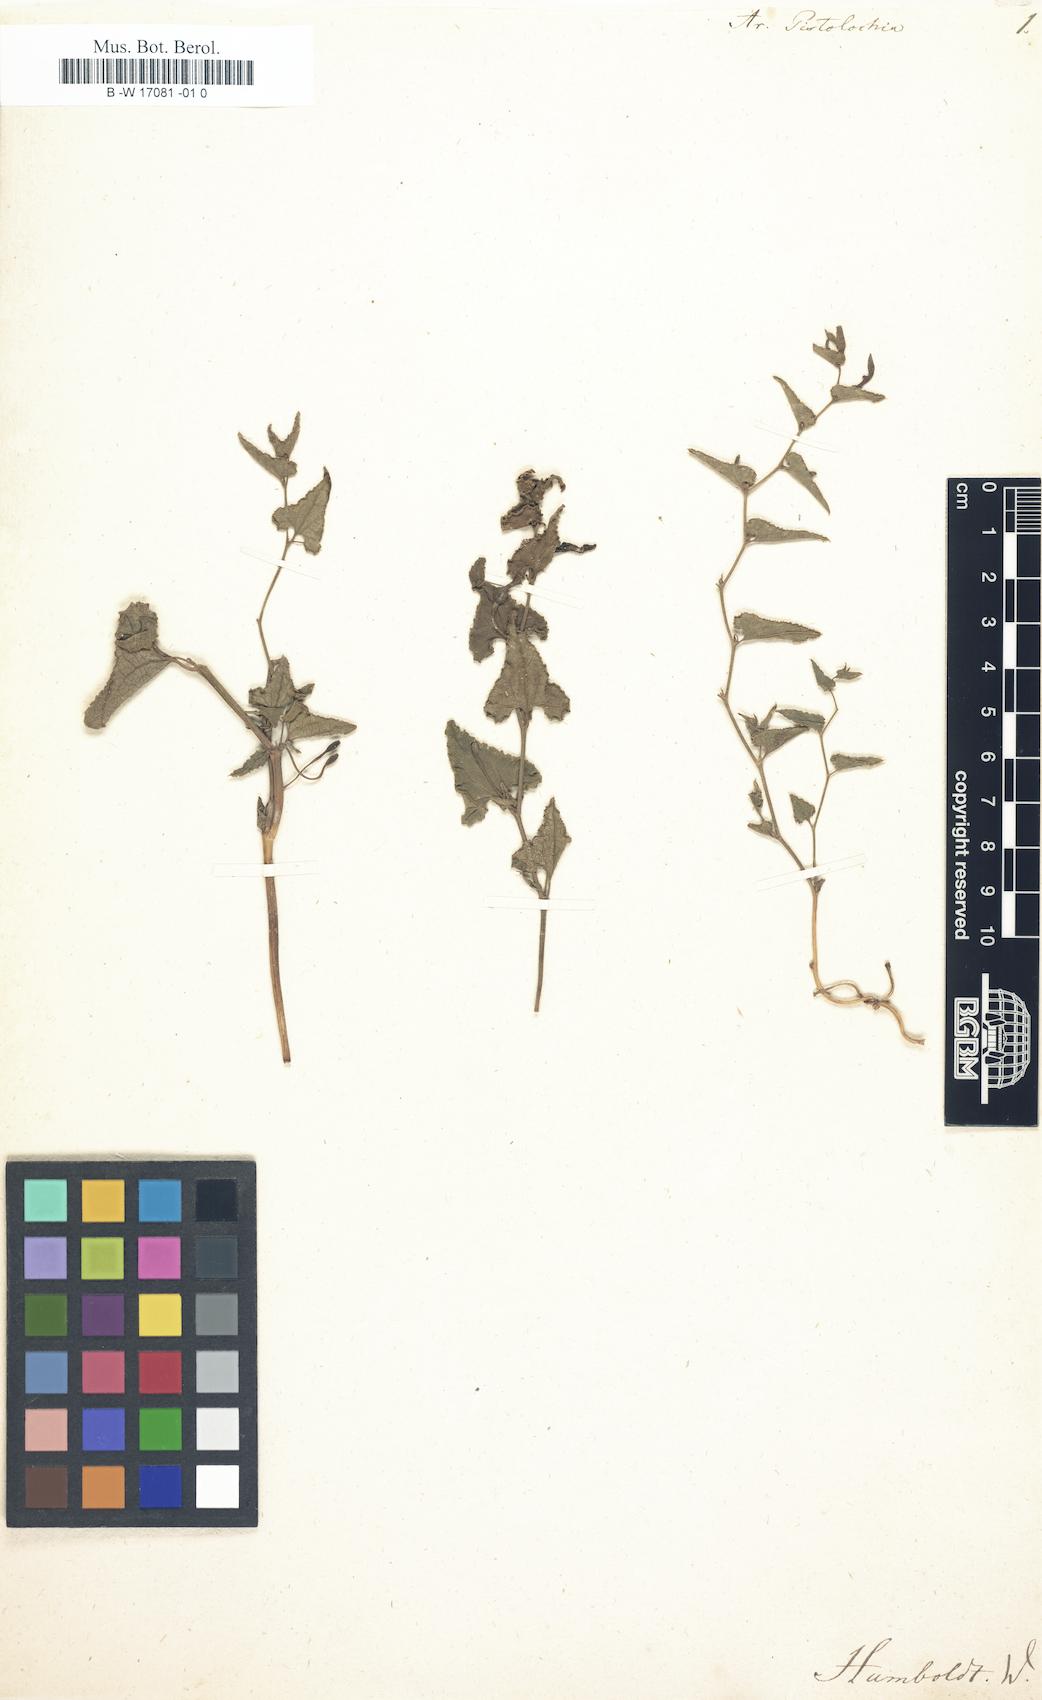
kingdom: Plantae
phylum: Tracheophyta
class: Magnoliopsida
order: Piperales
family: Aristolochiaceae
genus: Aristolochia
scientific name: Aristolochia pistolochia
